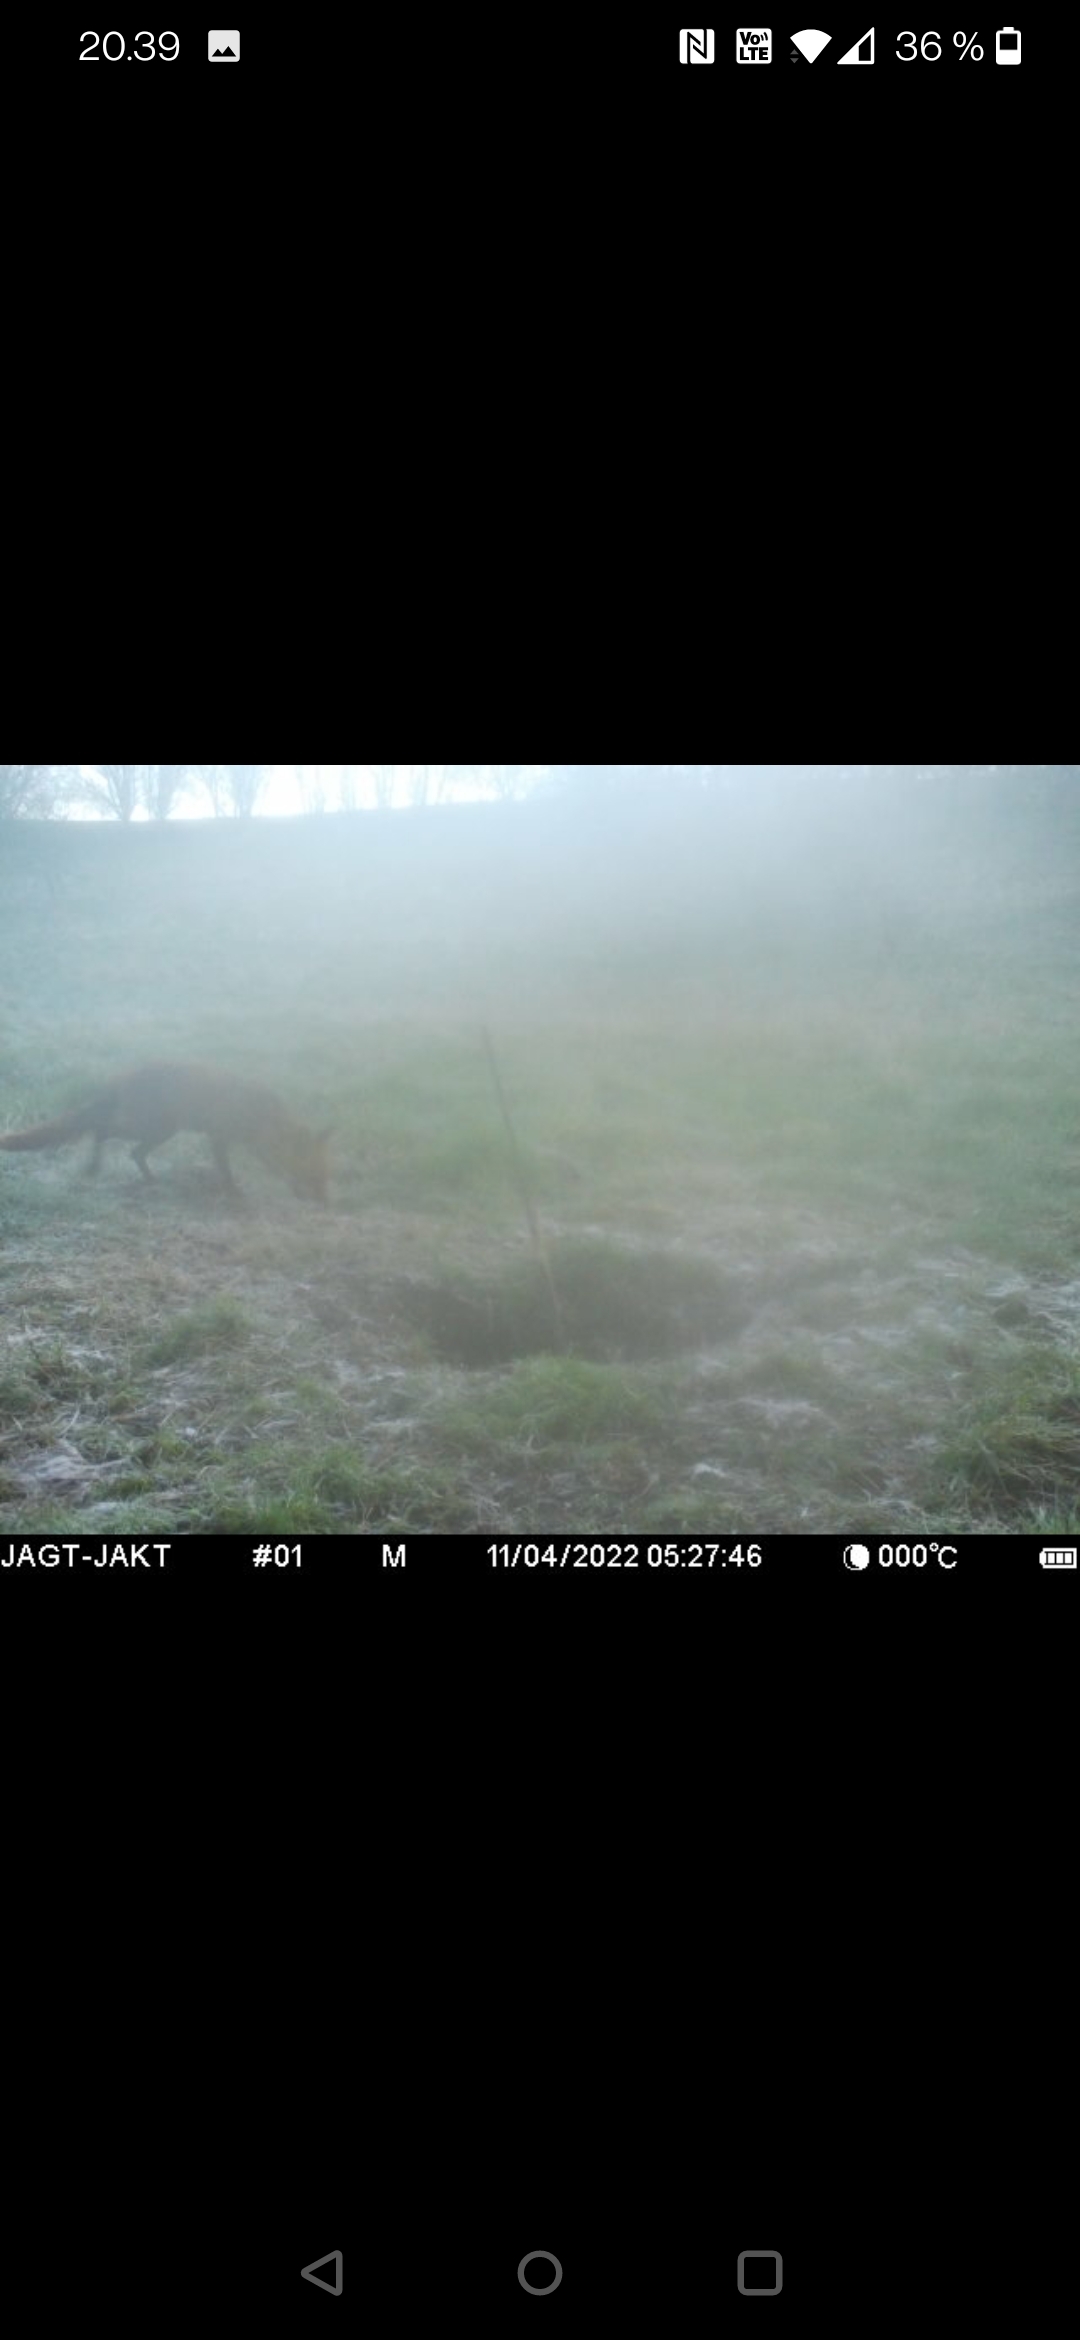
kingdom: Animalia
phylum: Chordata
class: Mammalia
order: Carnivora
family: Canidae
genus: Vulpes
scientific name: Vulpes vulpes
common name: Ræv
